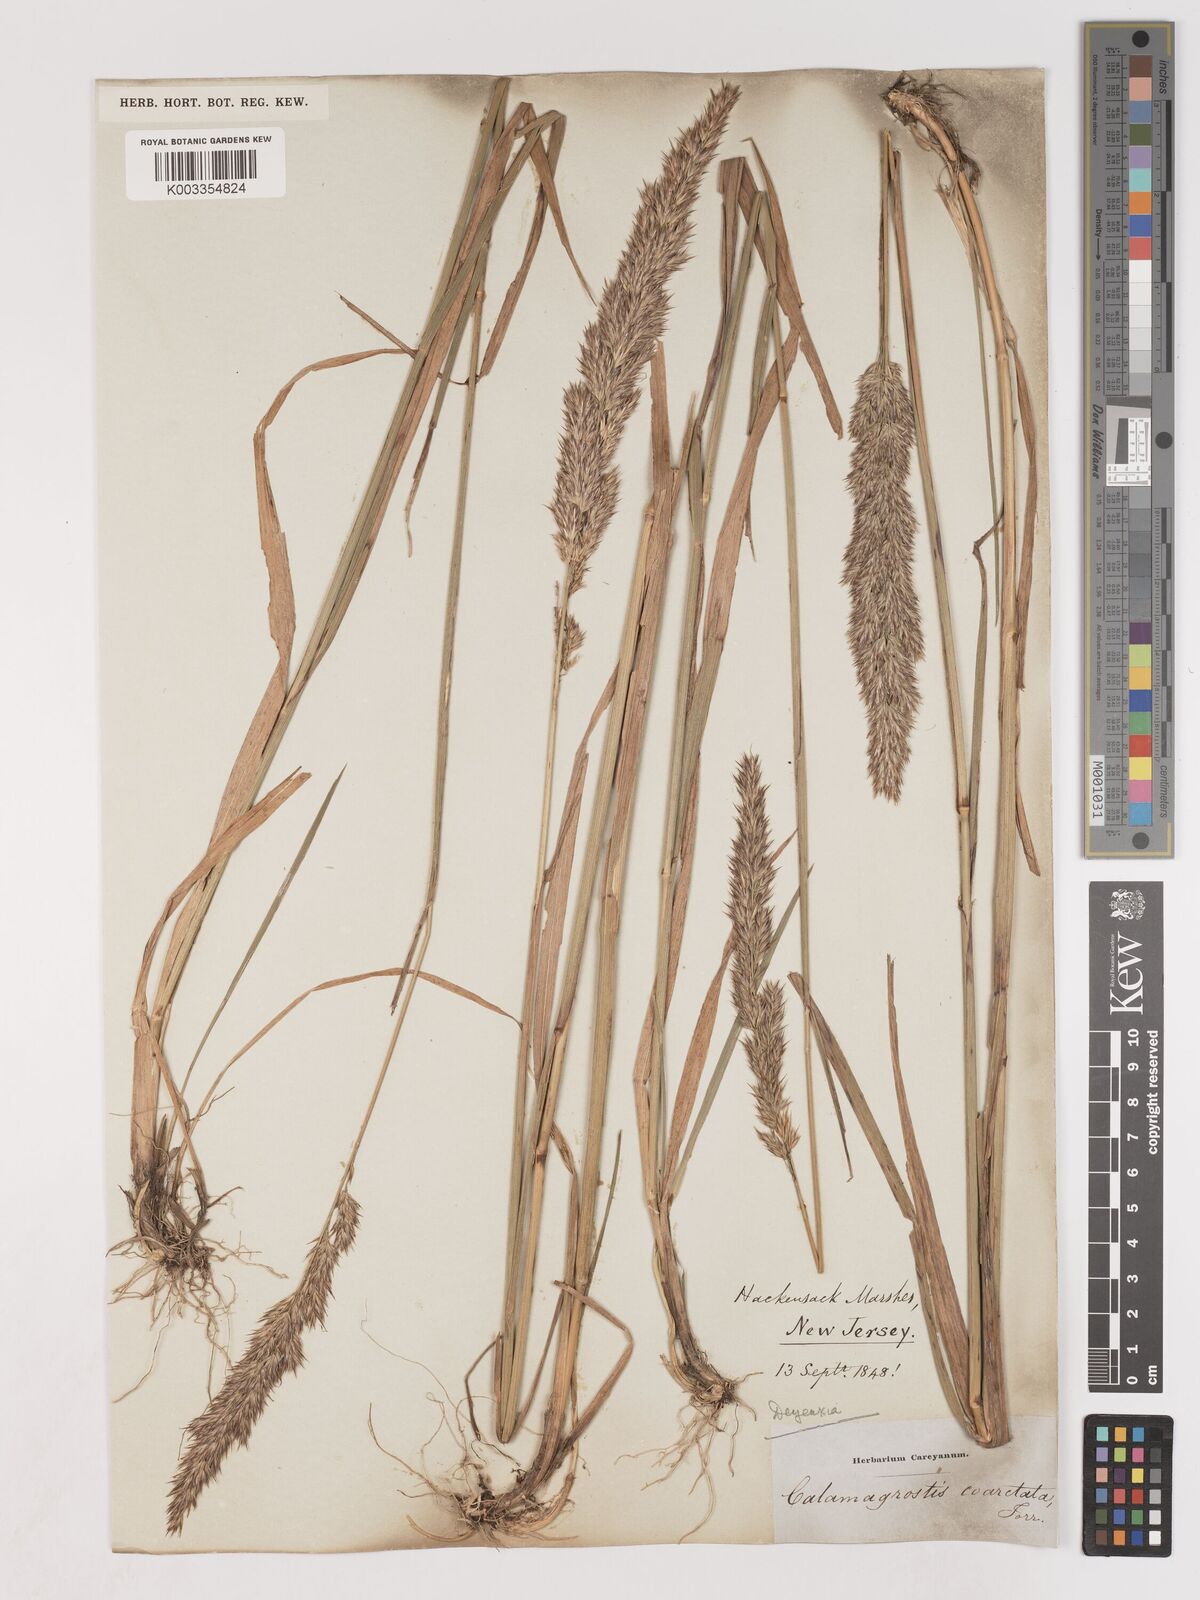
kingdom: Plantae
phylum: Tracheophyta
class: Liliopsida
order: Poales
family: Poaceae
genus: Calamagrostis
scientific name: Calamagrostis
